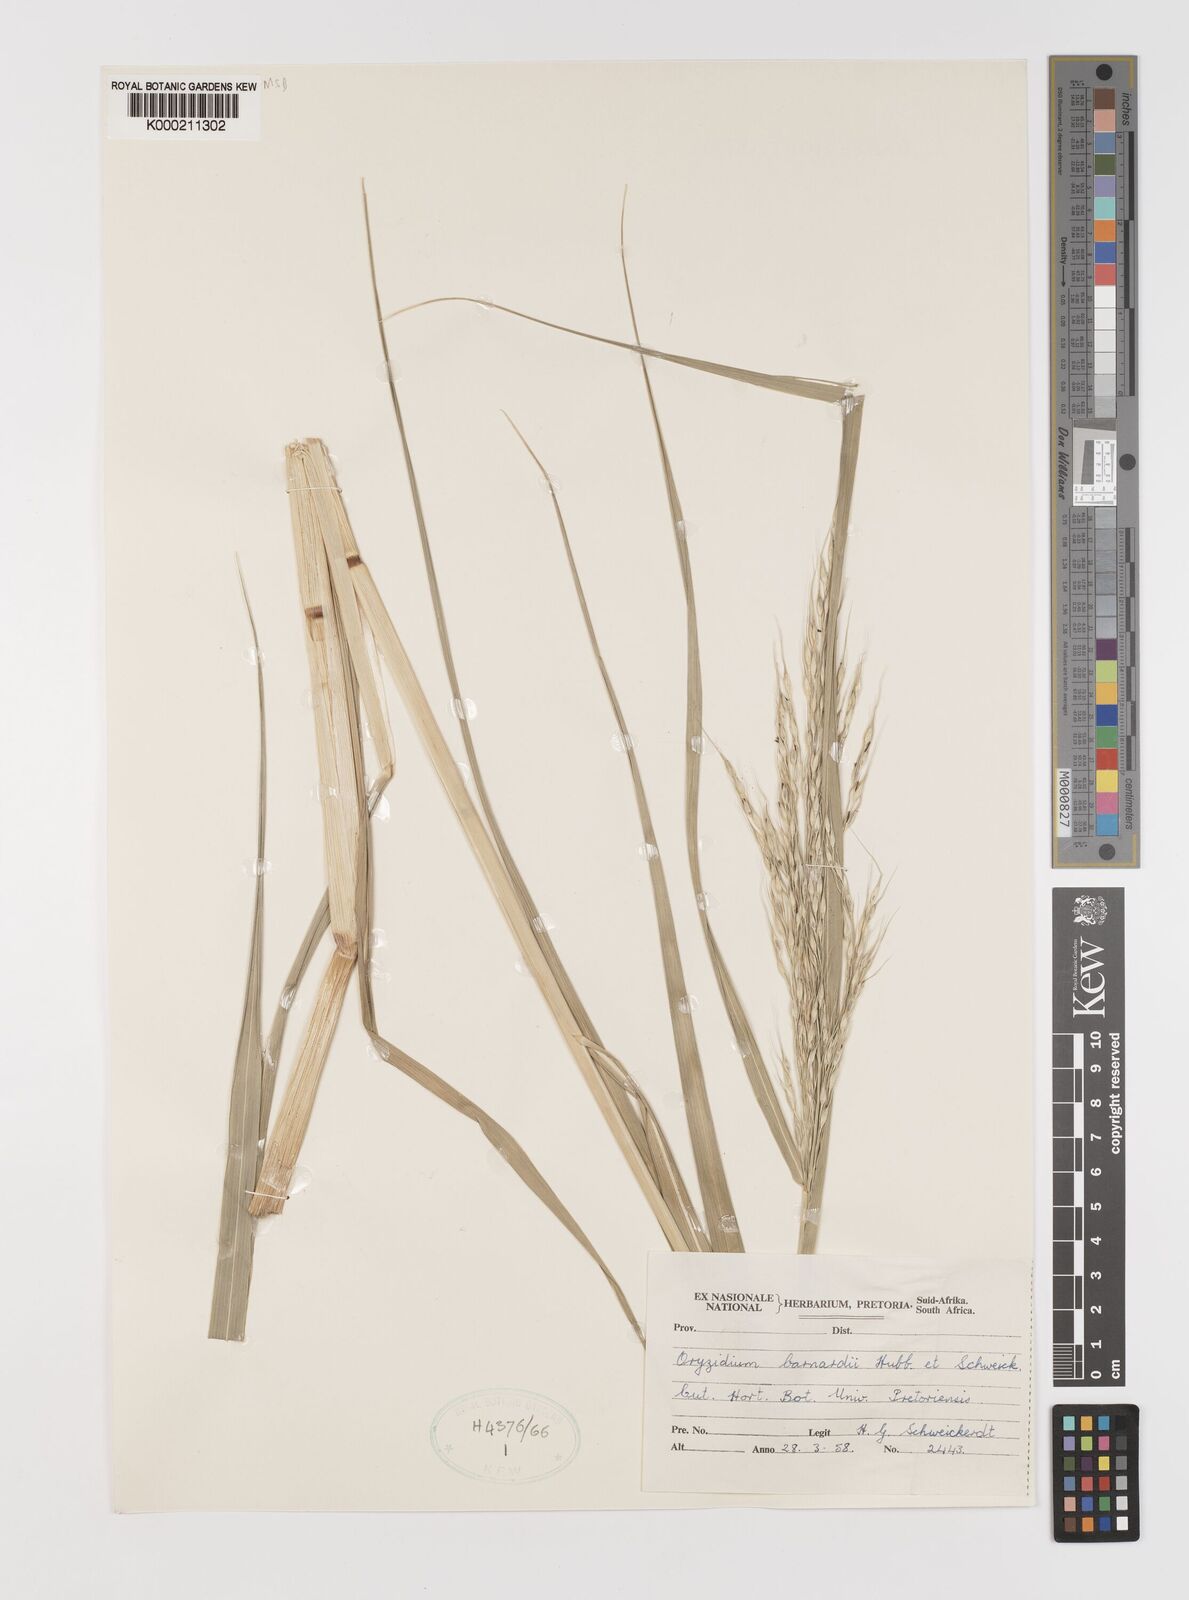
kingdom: Plantae
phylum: Tracheophyta
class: Liliopsida
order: Poales
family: Poaceae
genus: Oryzidium
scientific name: Oryzidium barnardii
